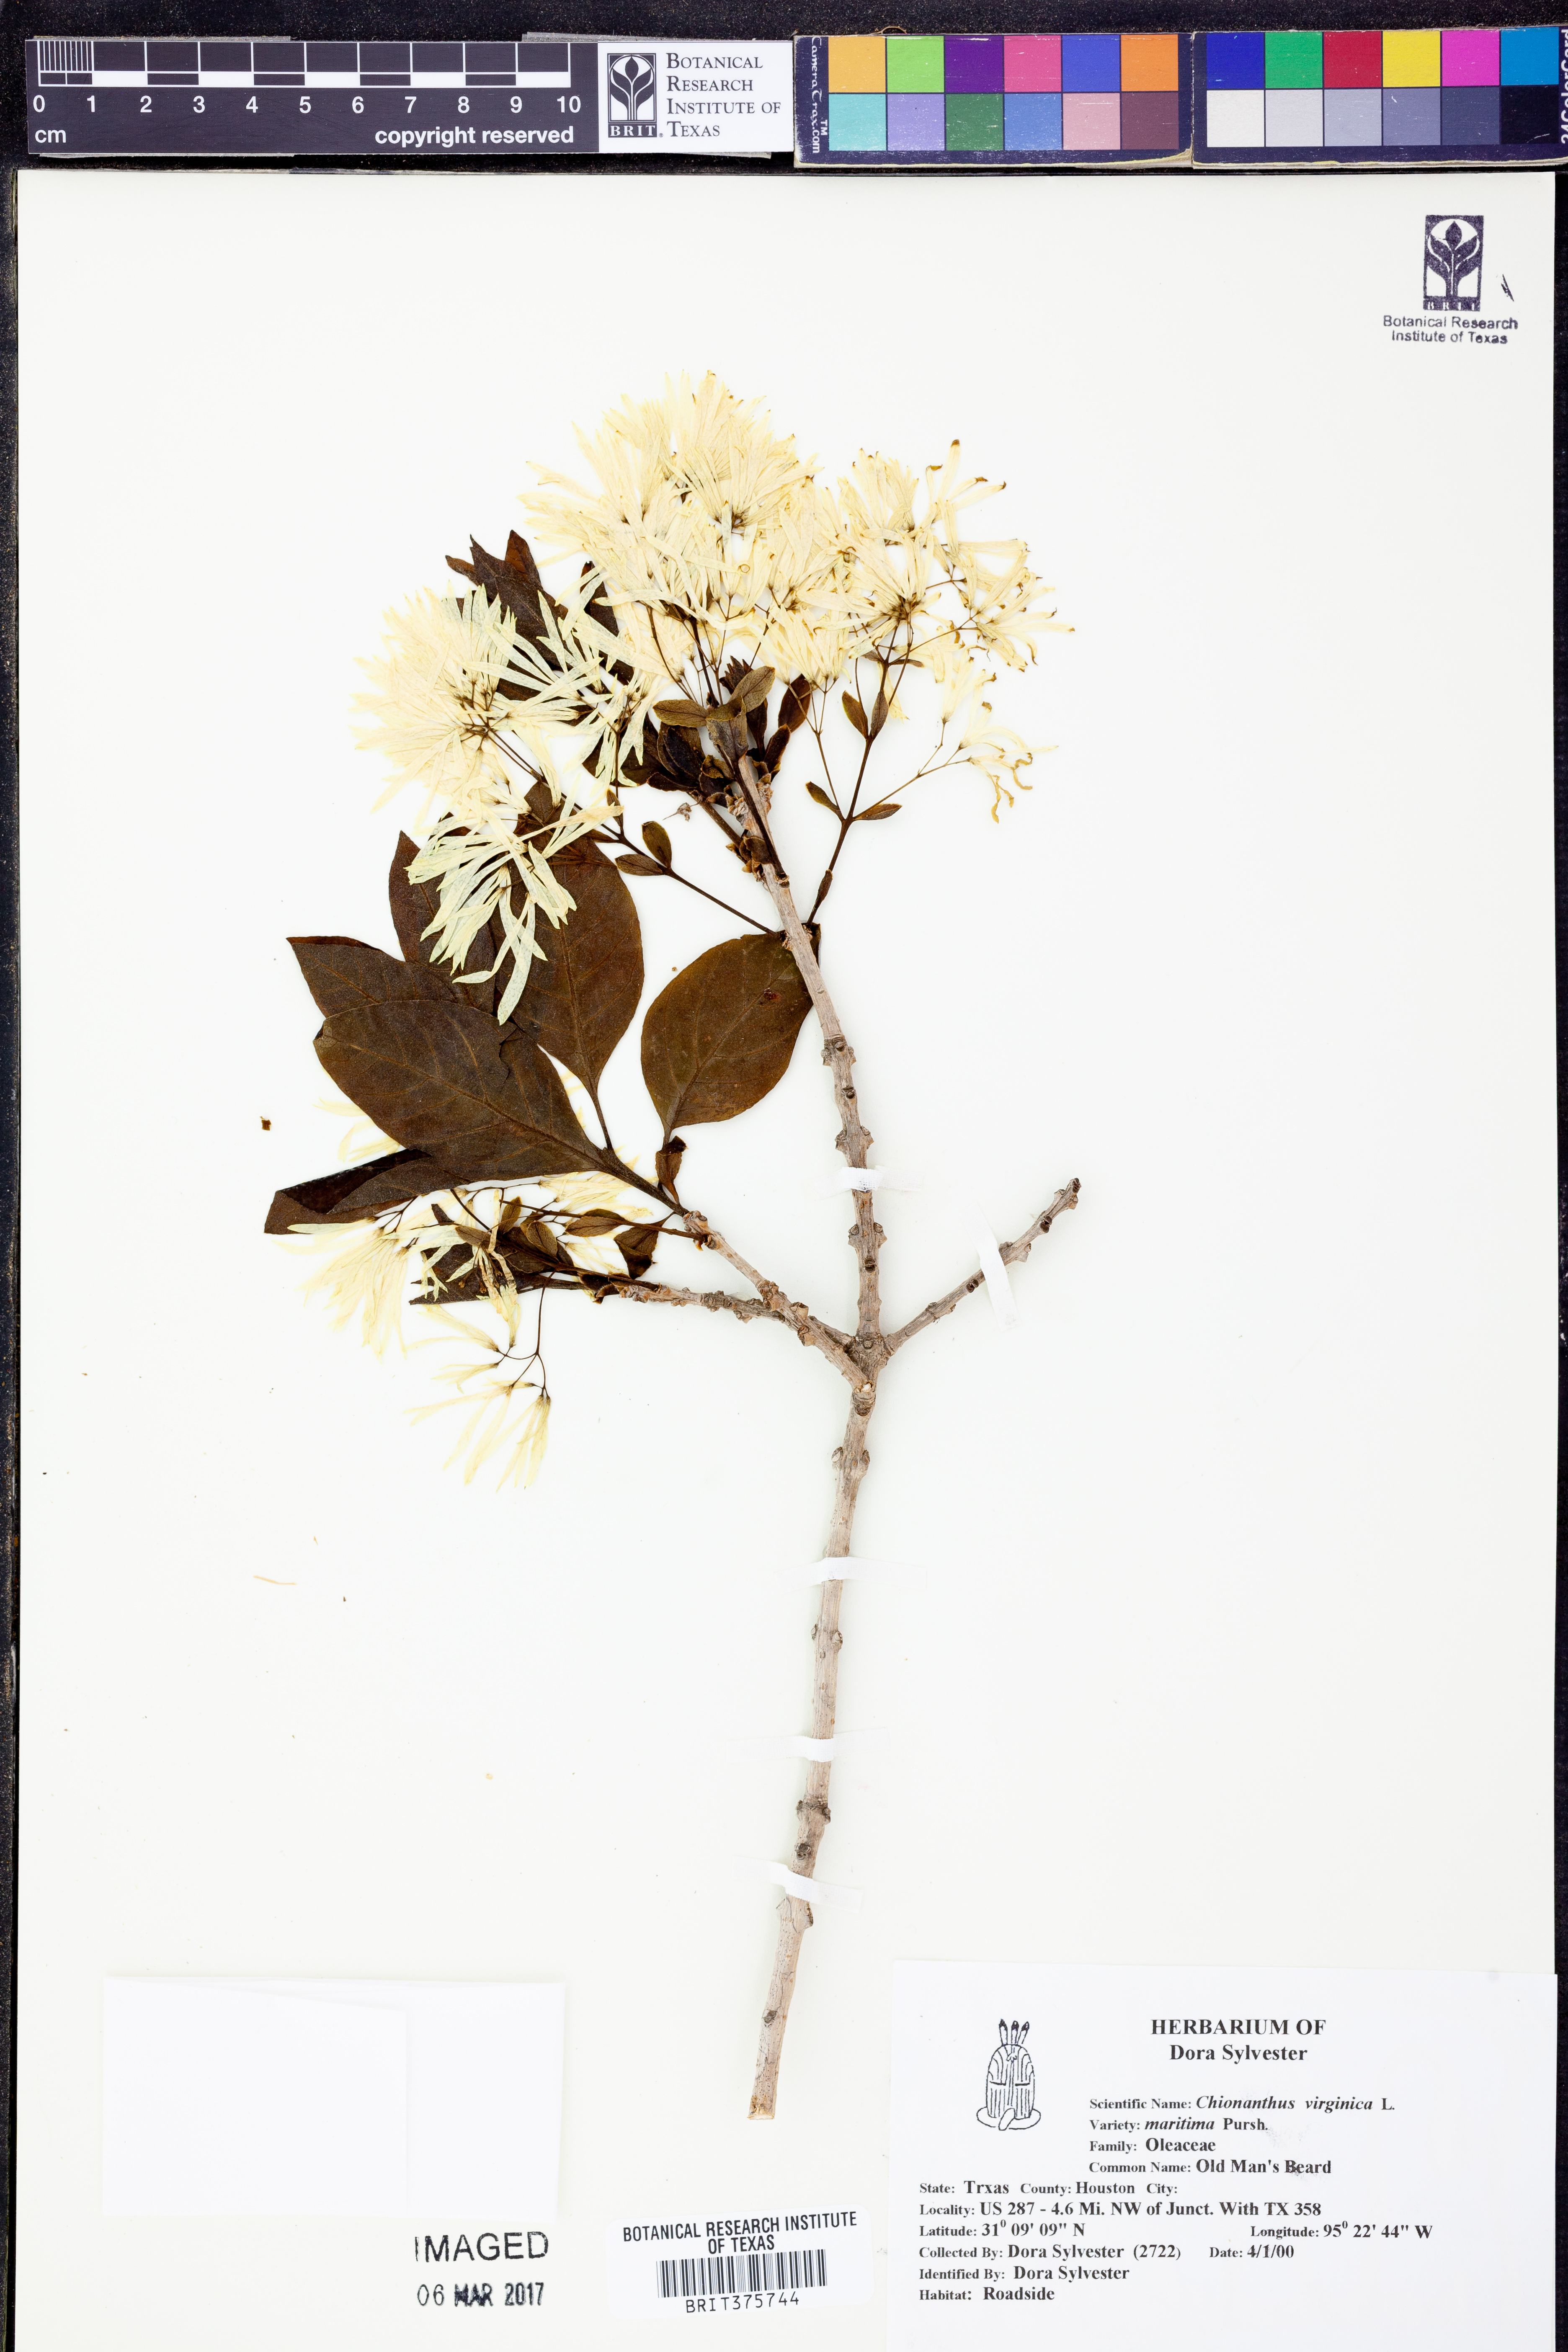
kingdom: Plantae
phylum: Tracheophyta
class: Magnoliopsida
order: Lamiales
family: Oleaceae
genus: Chionanthus
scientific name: Chionanthus virginicus
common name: American fringetree
